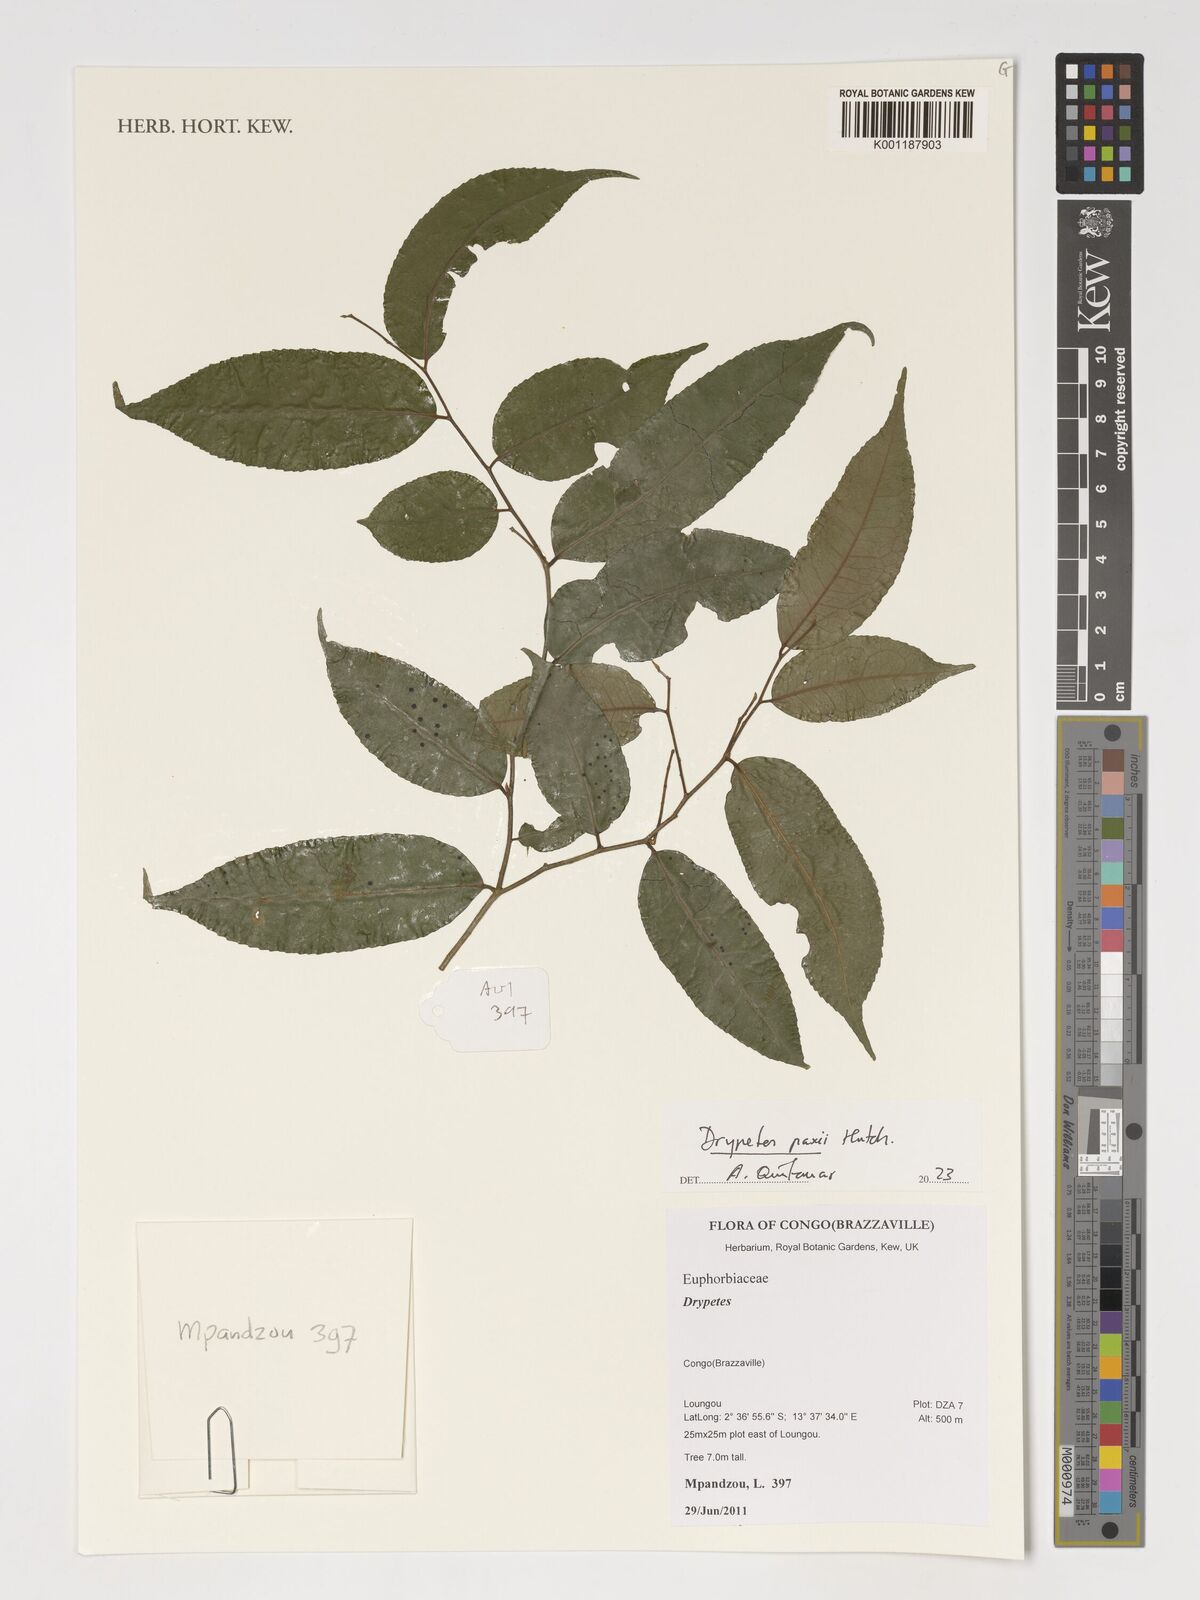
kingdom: Plantae
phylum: Tracheophyta
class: Magnoliopsida
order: Malpighiales
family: Putranjivaceae
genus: Drypetes
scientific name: Drypetes paxii
